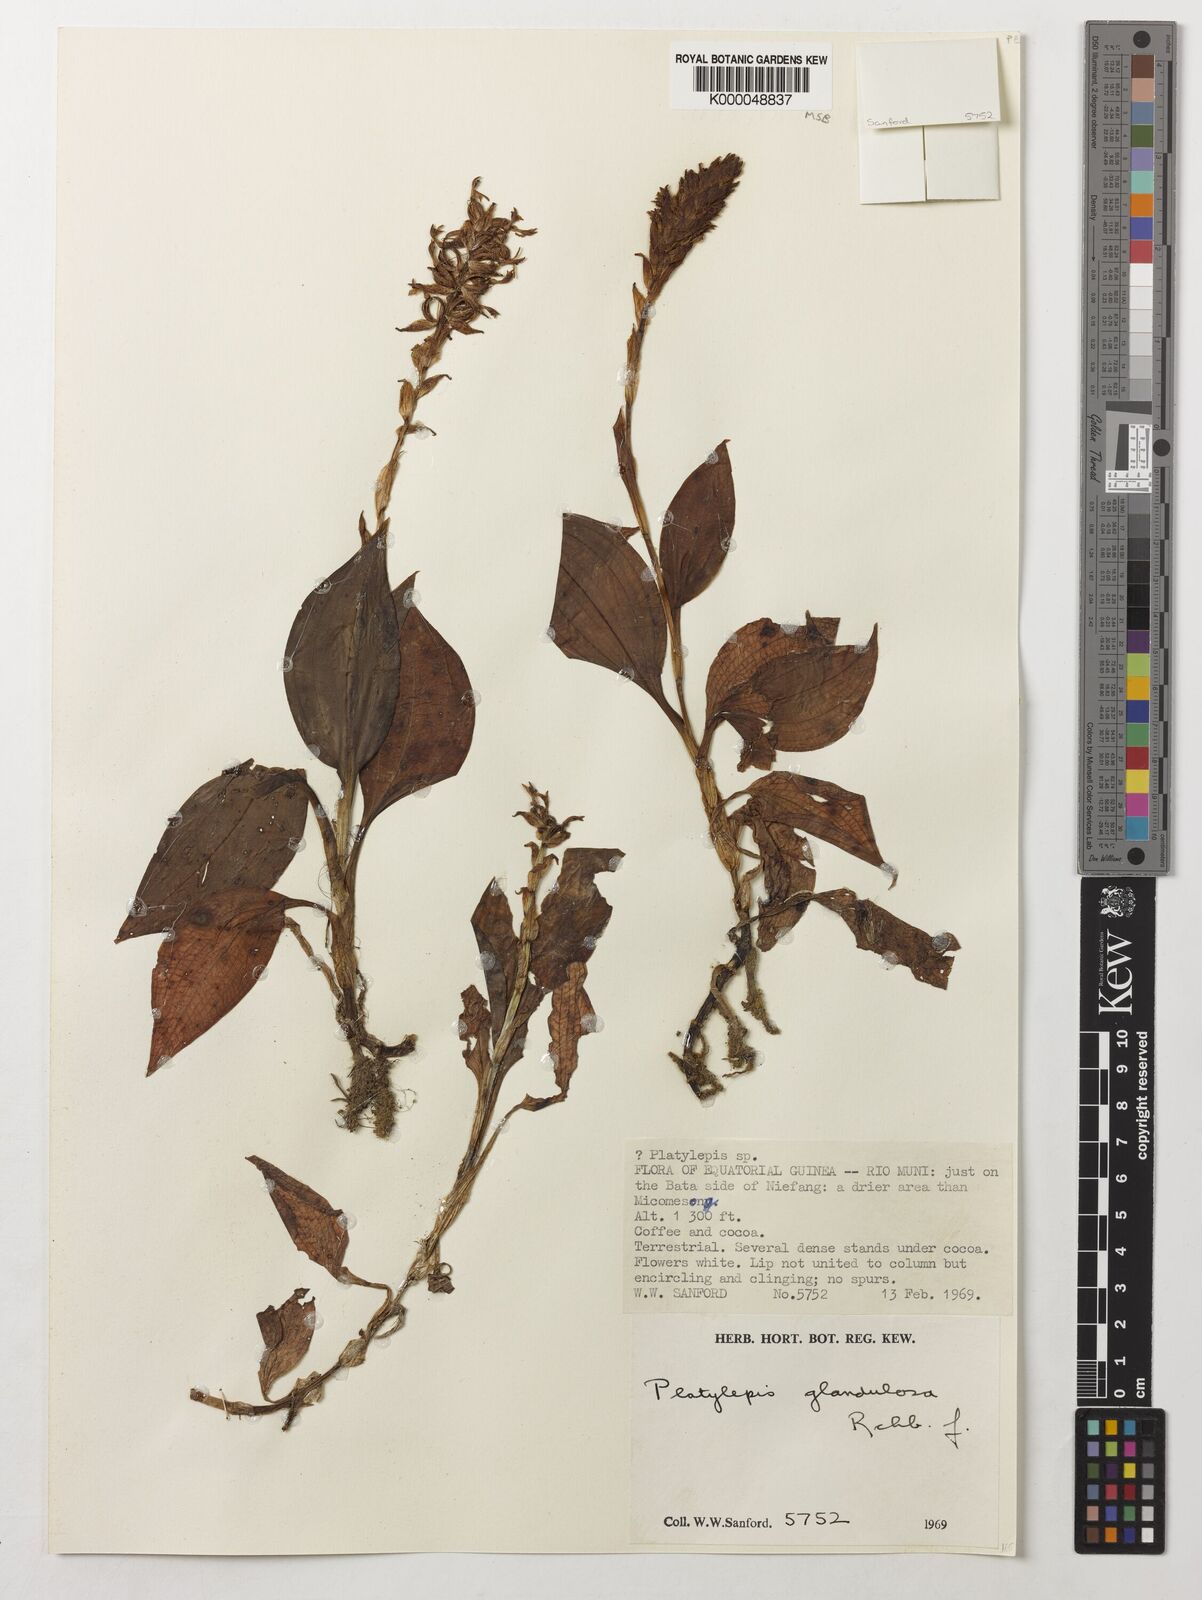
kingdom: Plantae
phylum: Tracheophyta
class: Liliopsida
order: Asparagales
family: Orchidaceae
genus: Platylepis
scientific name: Platylepis glandulosa
